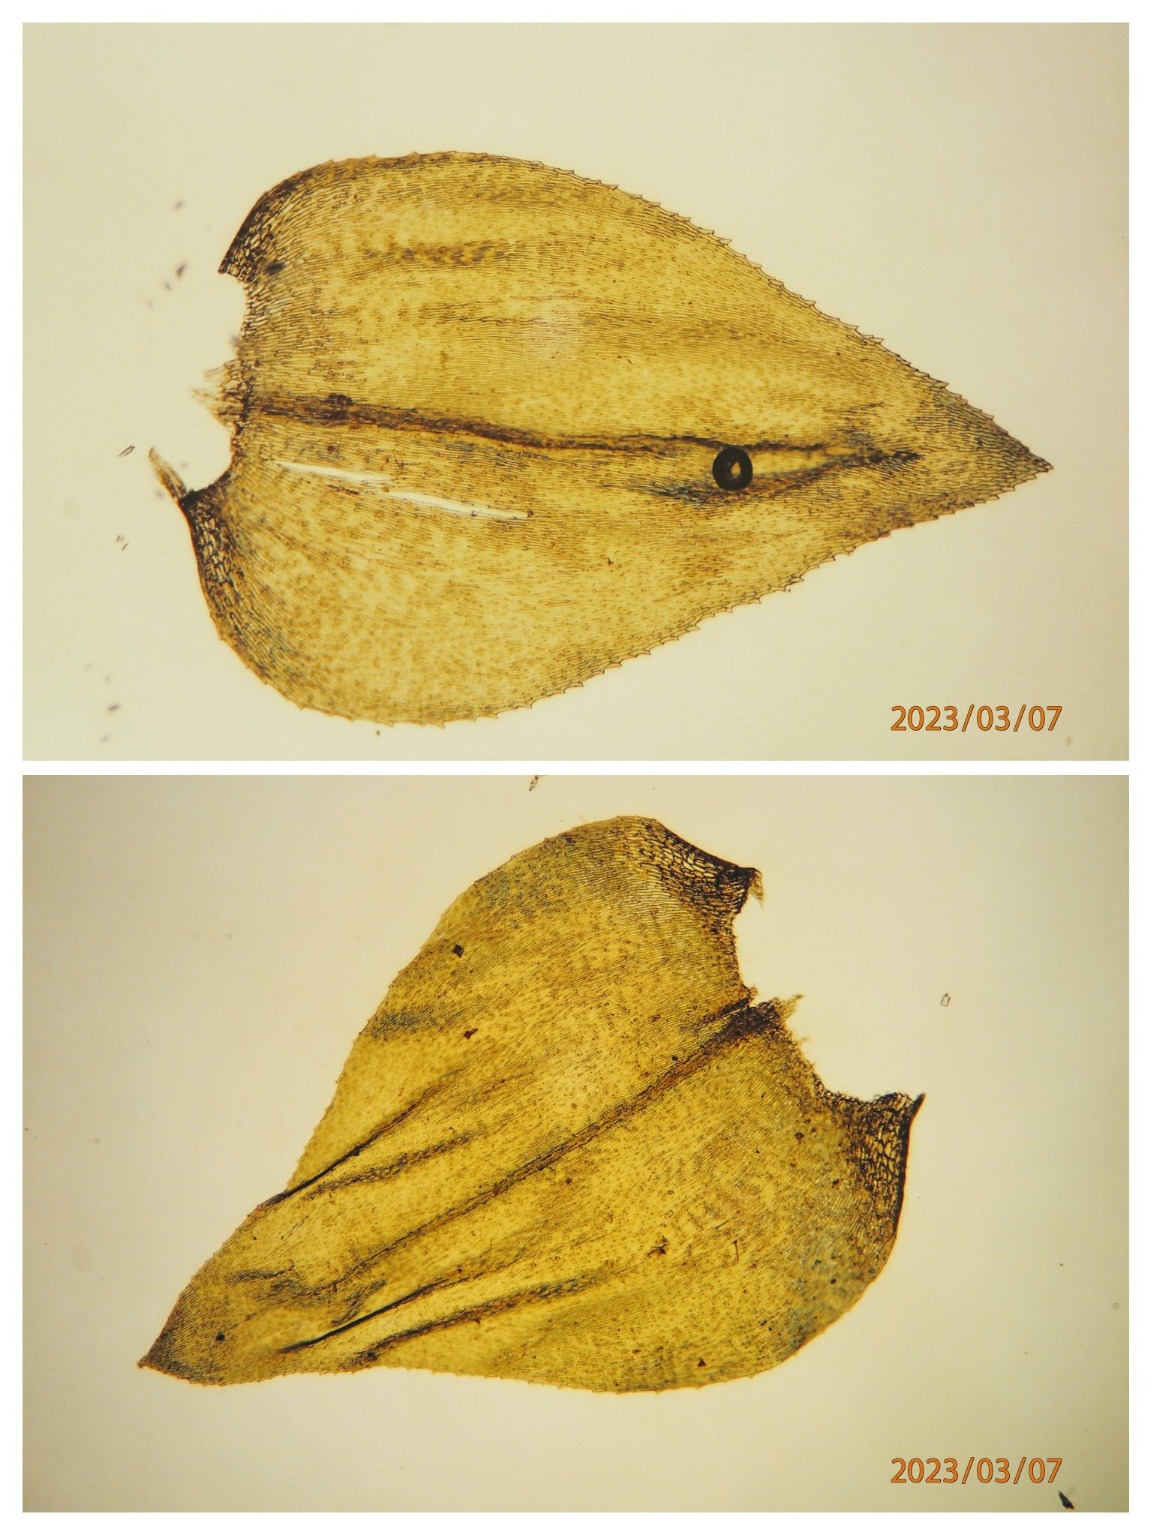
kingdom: Plantae
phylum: Bryophyta
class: Bryopsida
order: Hypnales
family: Brachytheciaceae
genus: Eurhynchium
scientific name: Eurhynchium angustirete
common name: Stor næbmos
